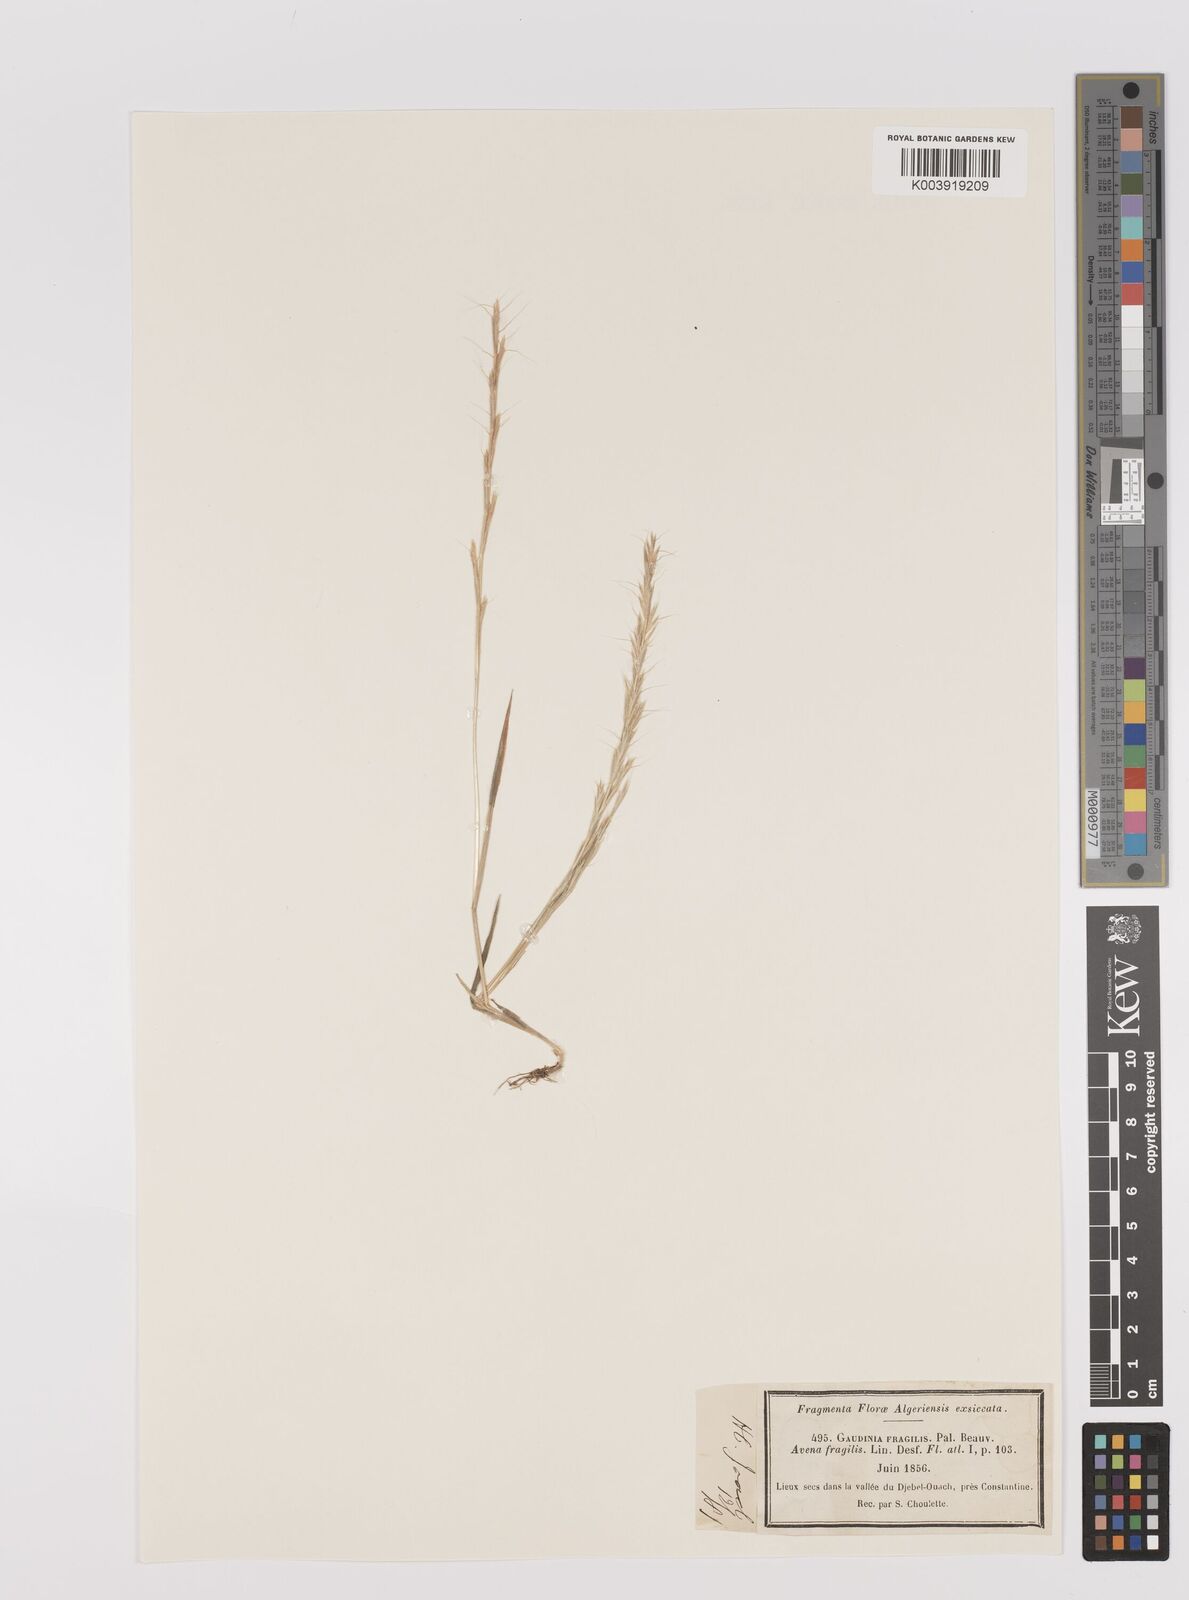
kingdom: Plantae
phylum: Tracheophyta
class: Liliopsida
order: Poales
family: Poaceae
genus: Gaudinia
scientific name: Gaudinia fragilis
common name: French oat-grass
